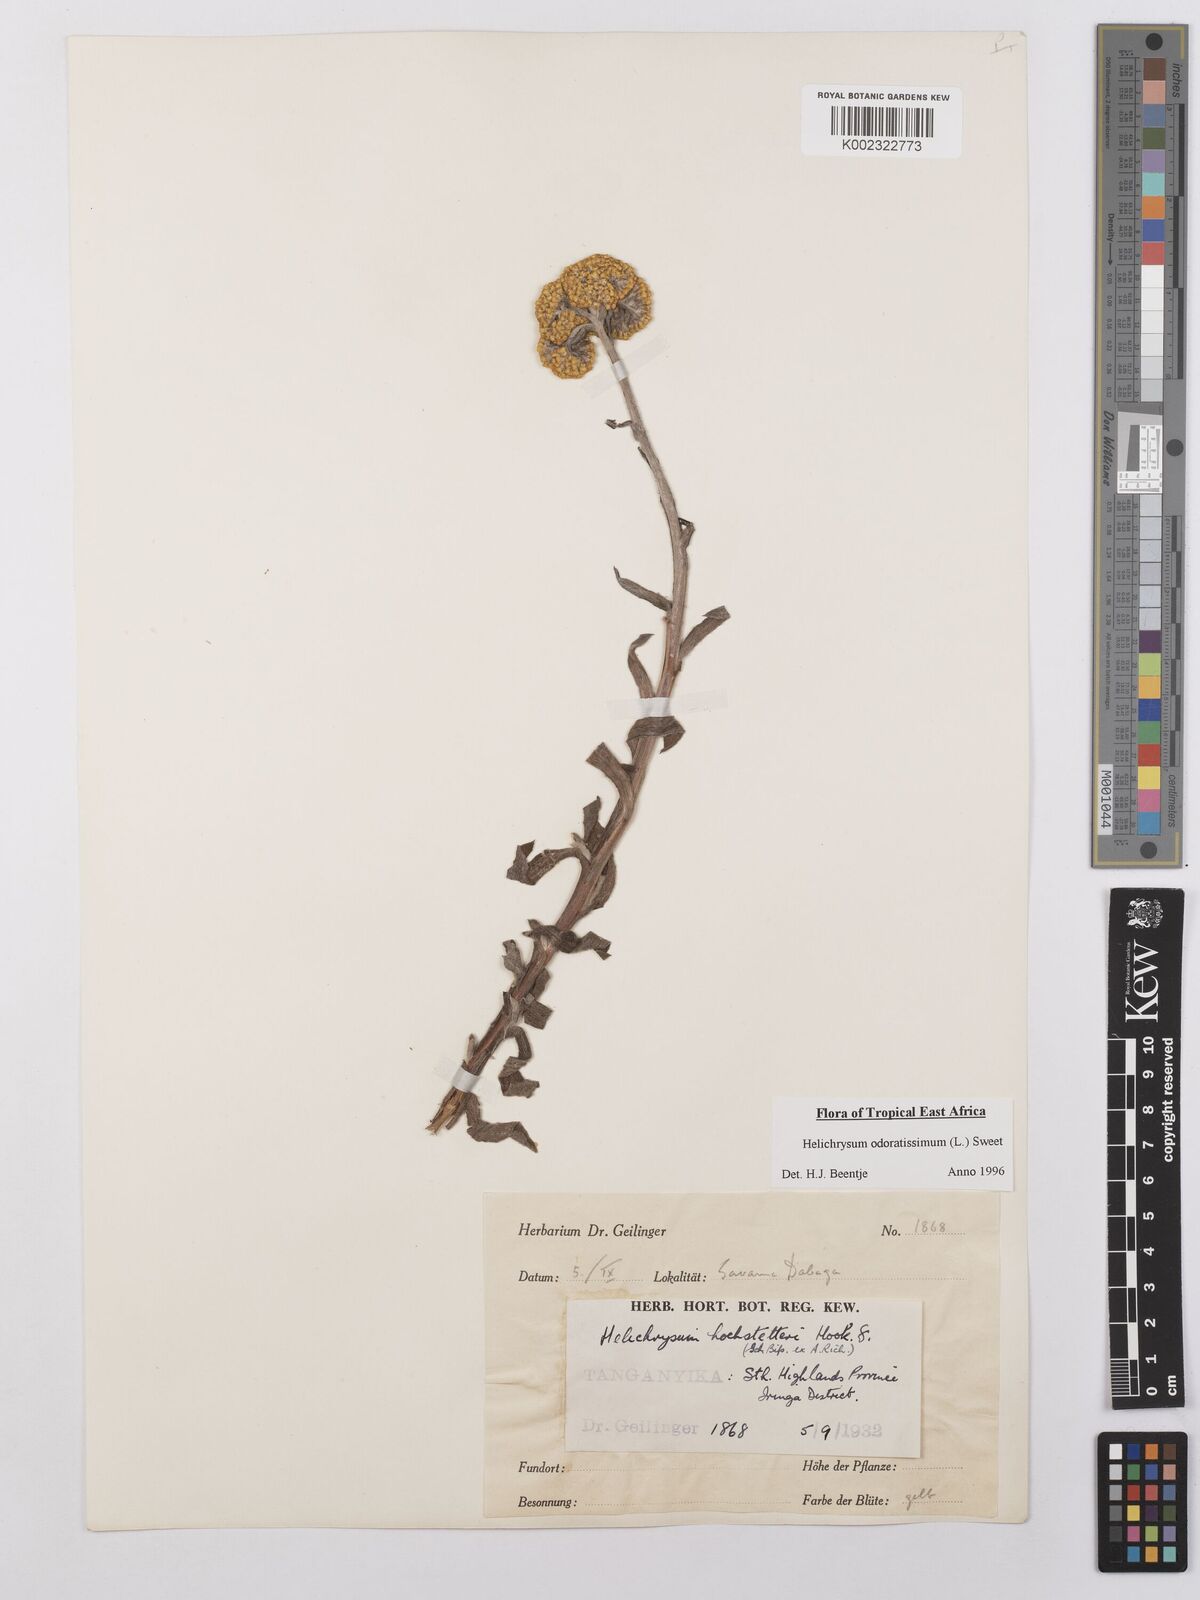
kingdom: Plantae
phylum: Tracheophyta
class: Magnoliopsida
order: Asterales
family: Asteraceae
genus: Helichrysum
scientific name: Helichrysum odoratissimum
